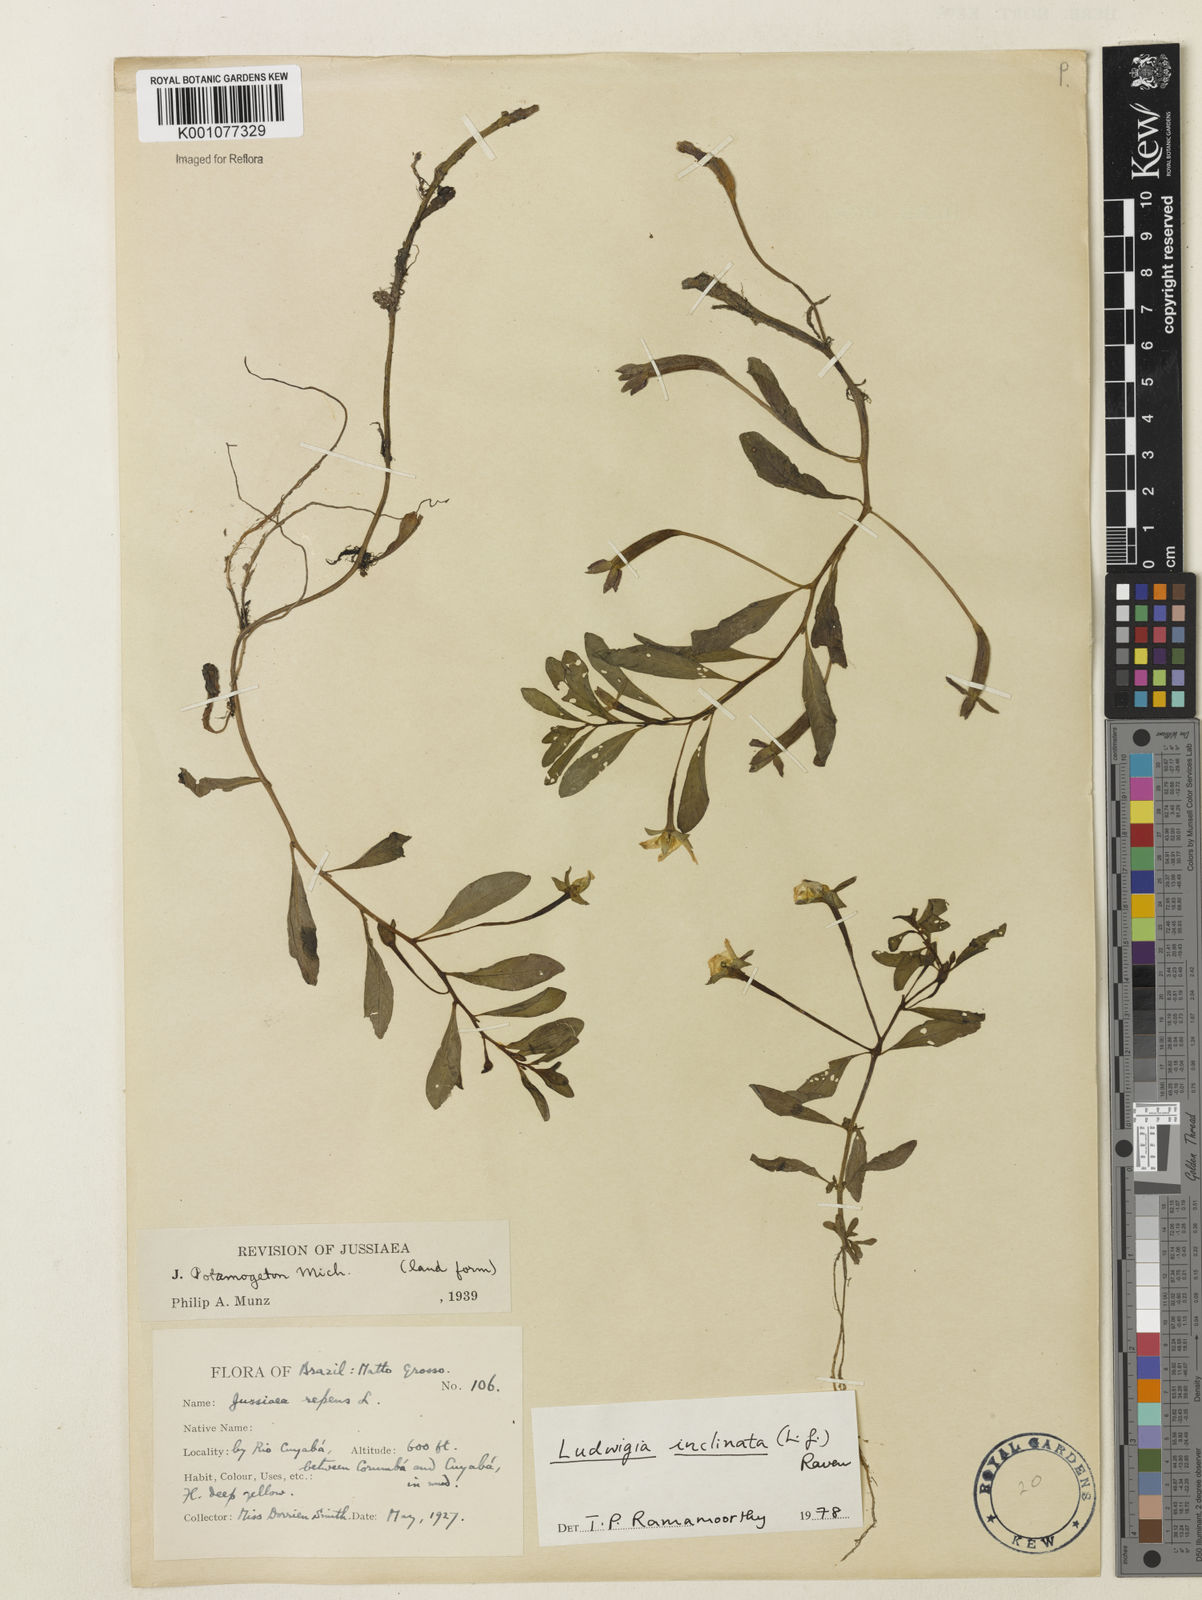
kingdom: Plantae
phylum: Tracheophyta
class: Magnoliopsida
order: Myrtales
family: Onagraceae
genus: Ludwigia
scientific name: Ludwigia potamogeton
